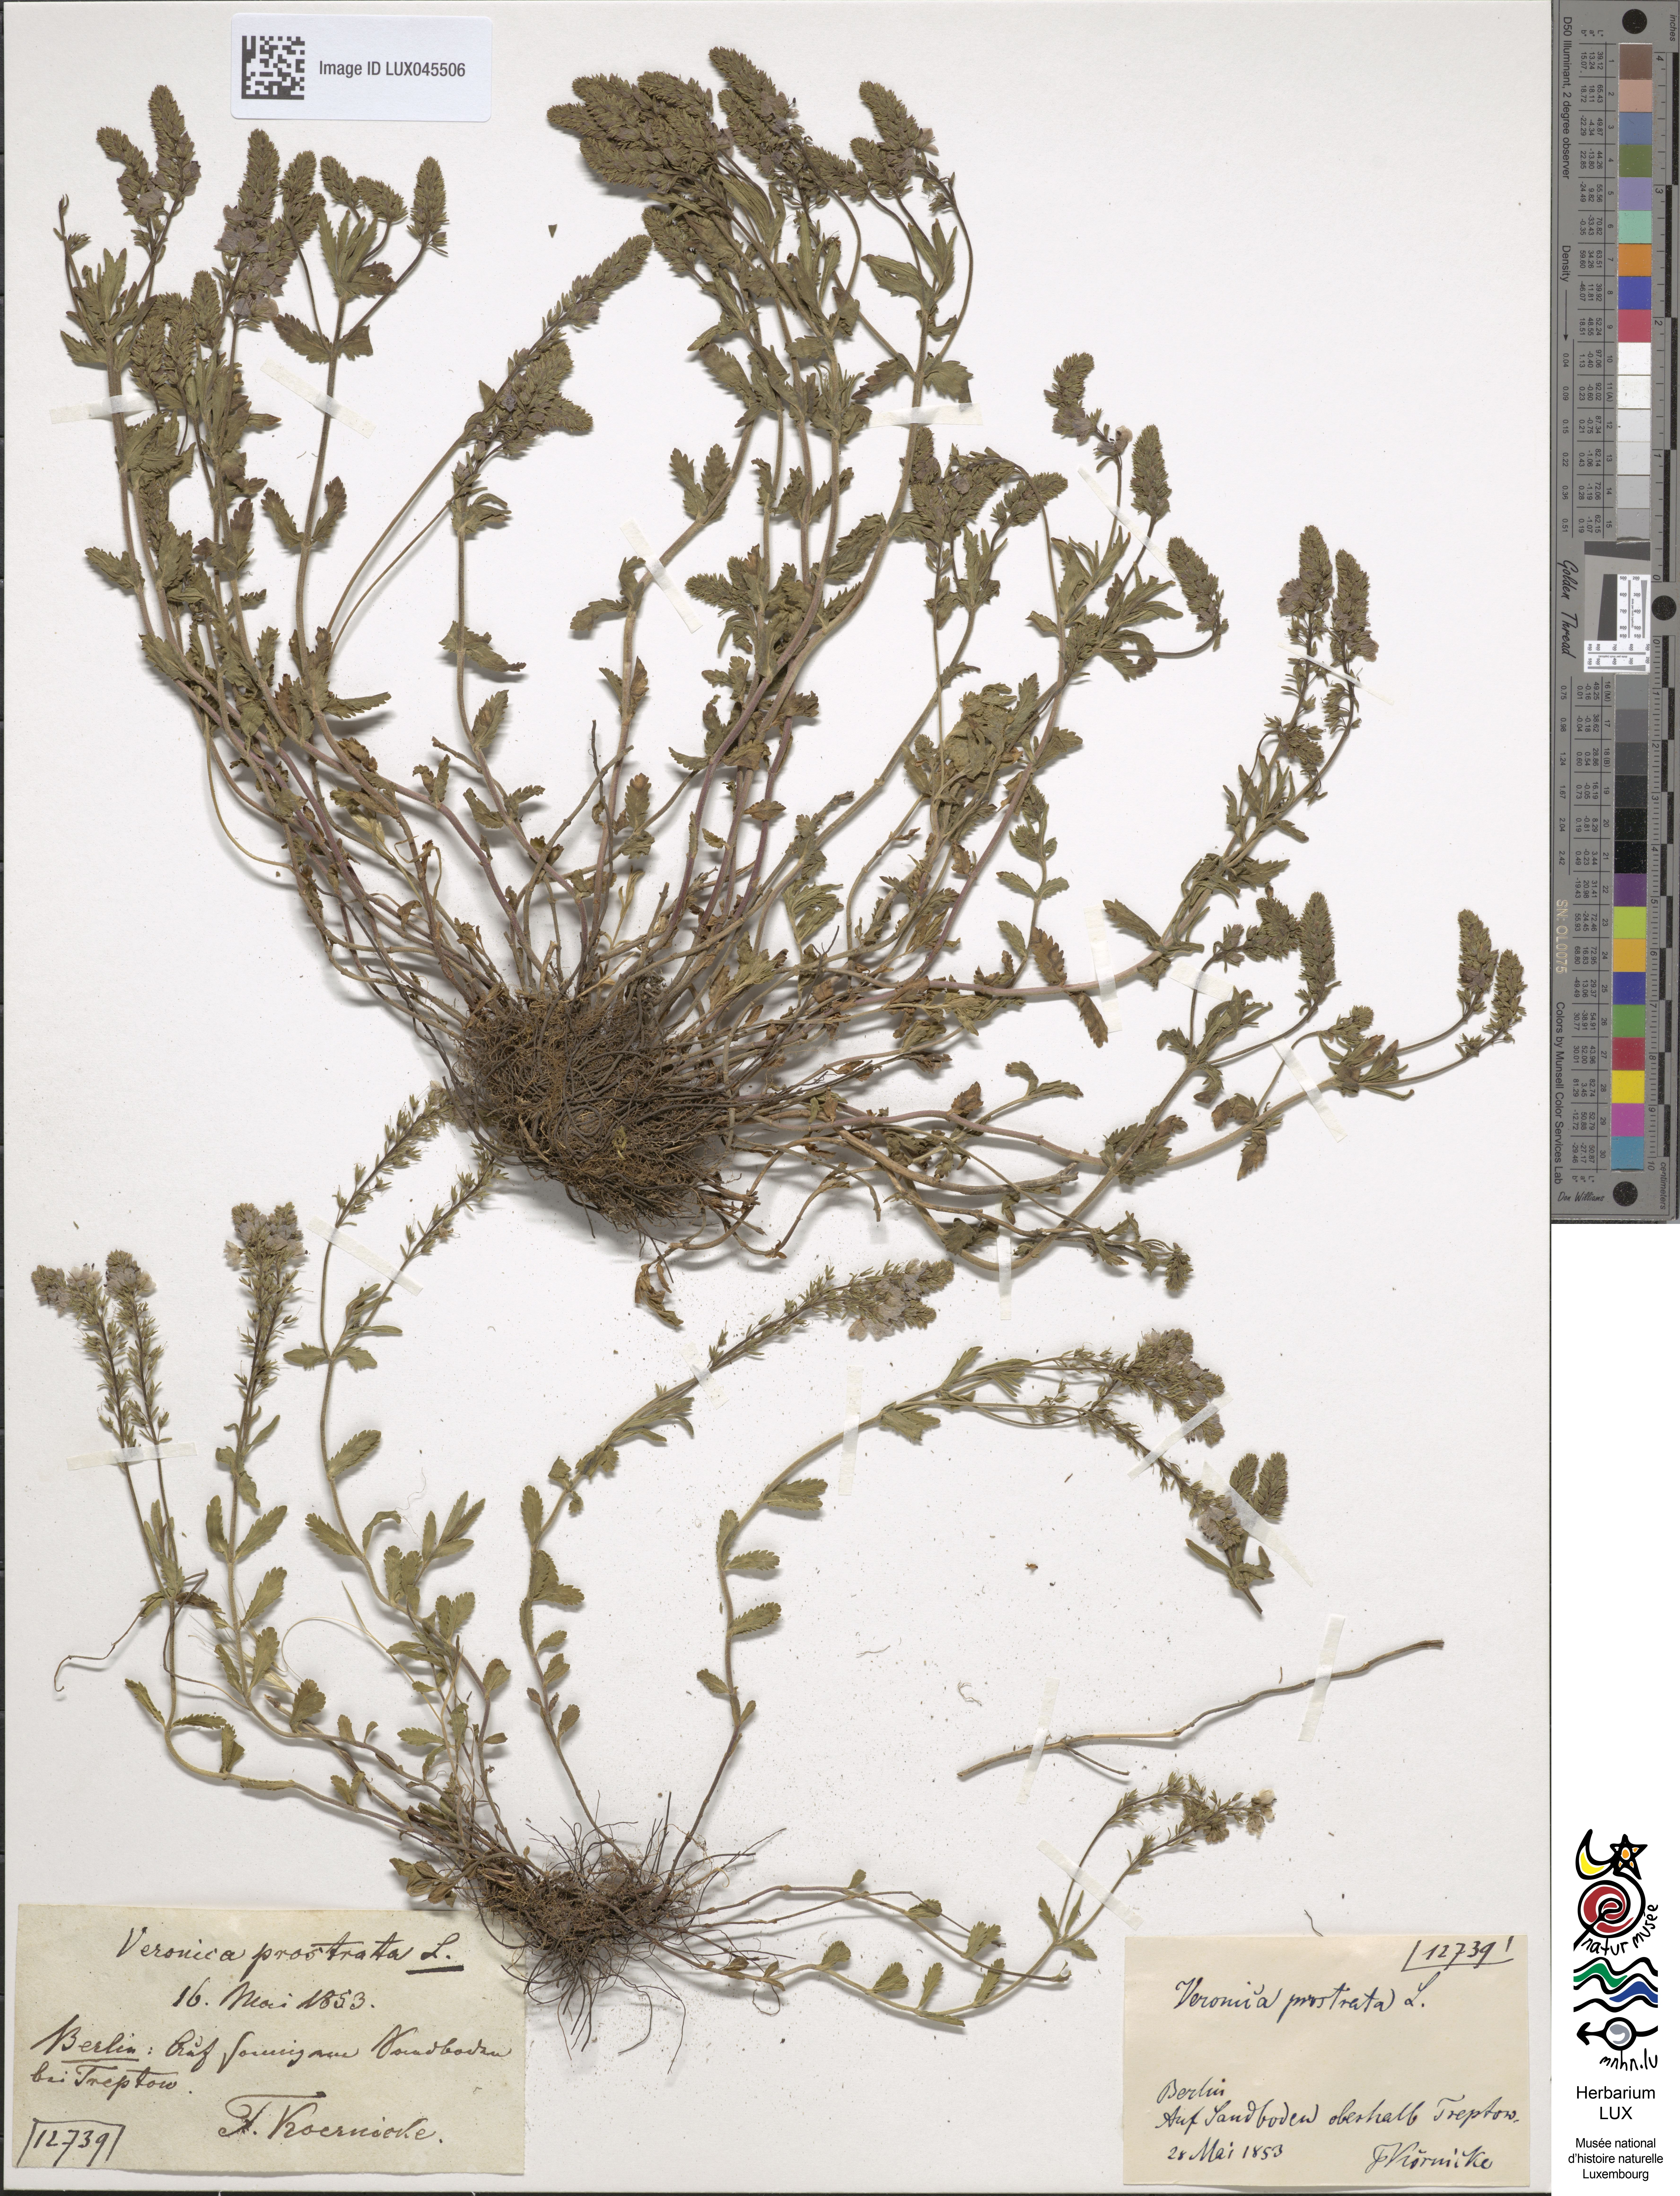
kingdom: Plantae
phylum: Tracheophyta
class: Magnoliopsida
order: Lamiales
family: Plantaginaceae
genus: Veronica
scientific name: Veronica prostrata
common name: Prostrate speedwell
